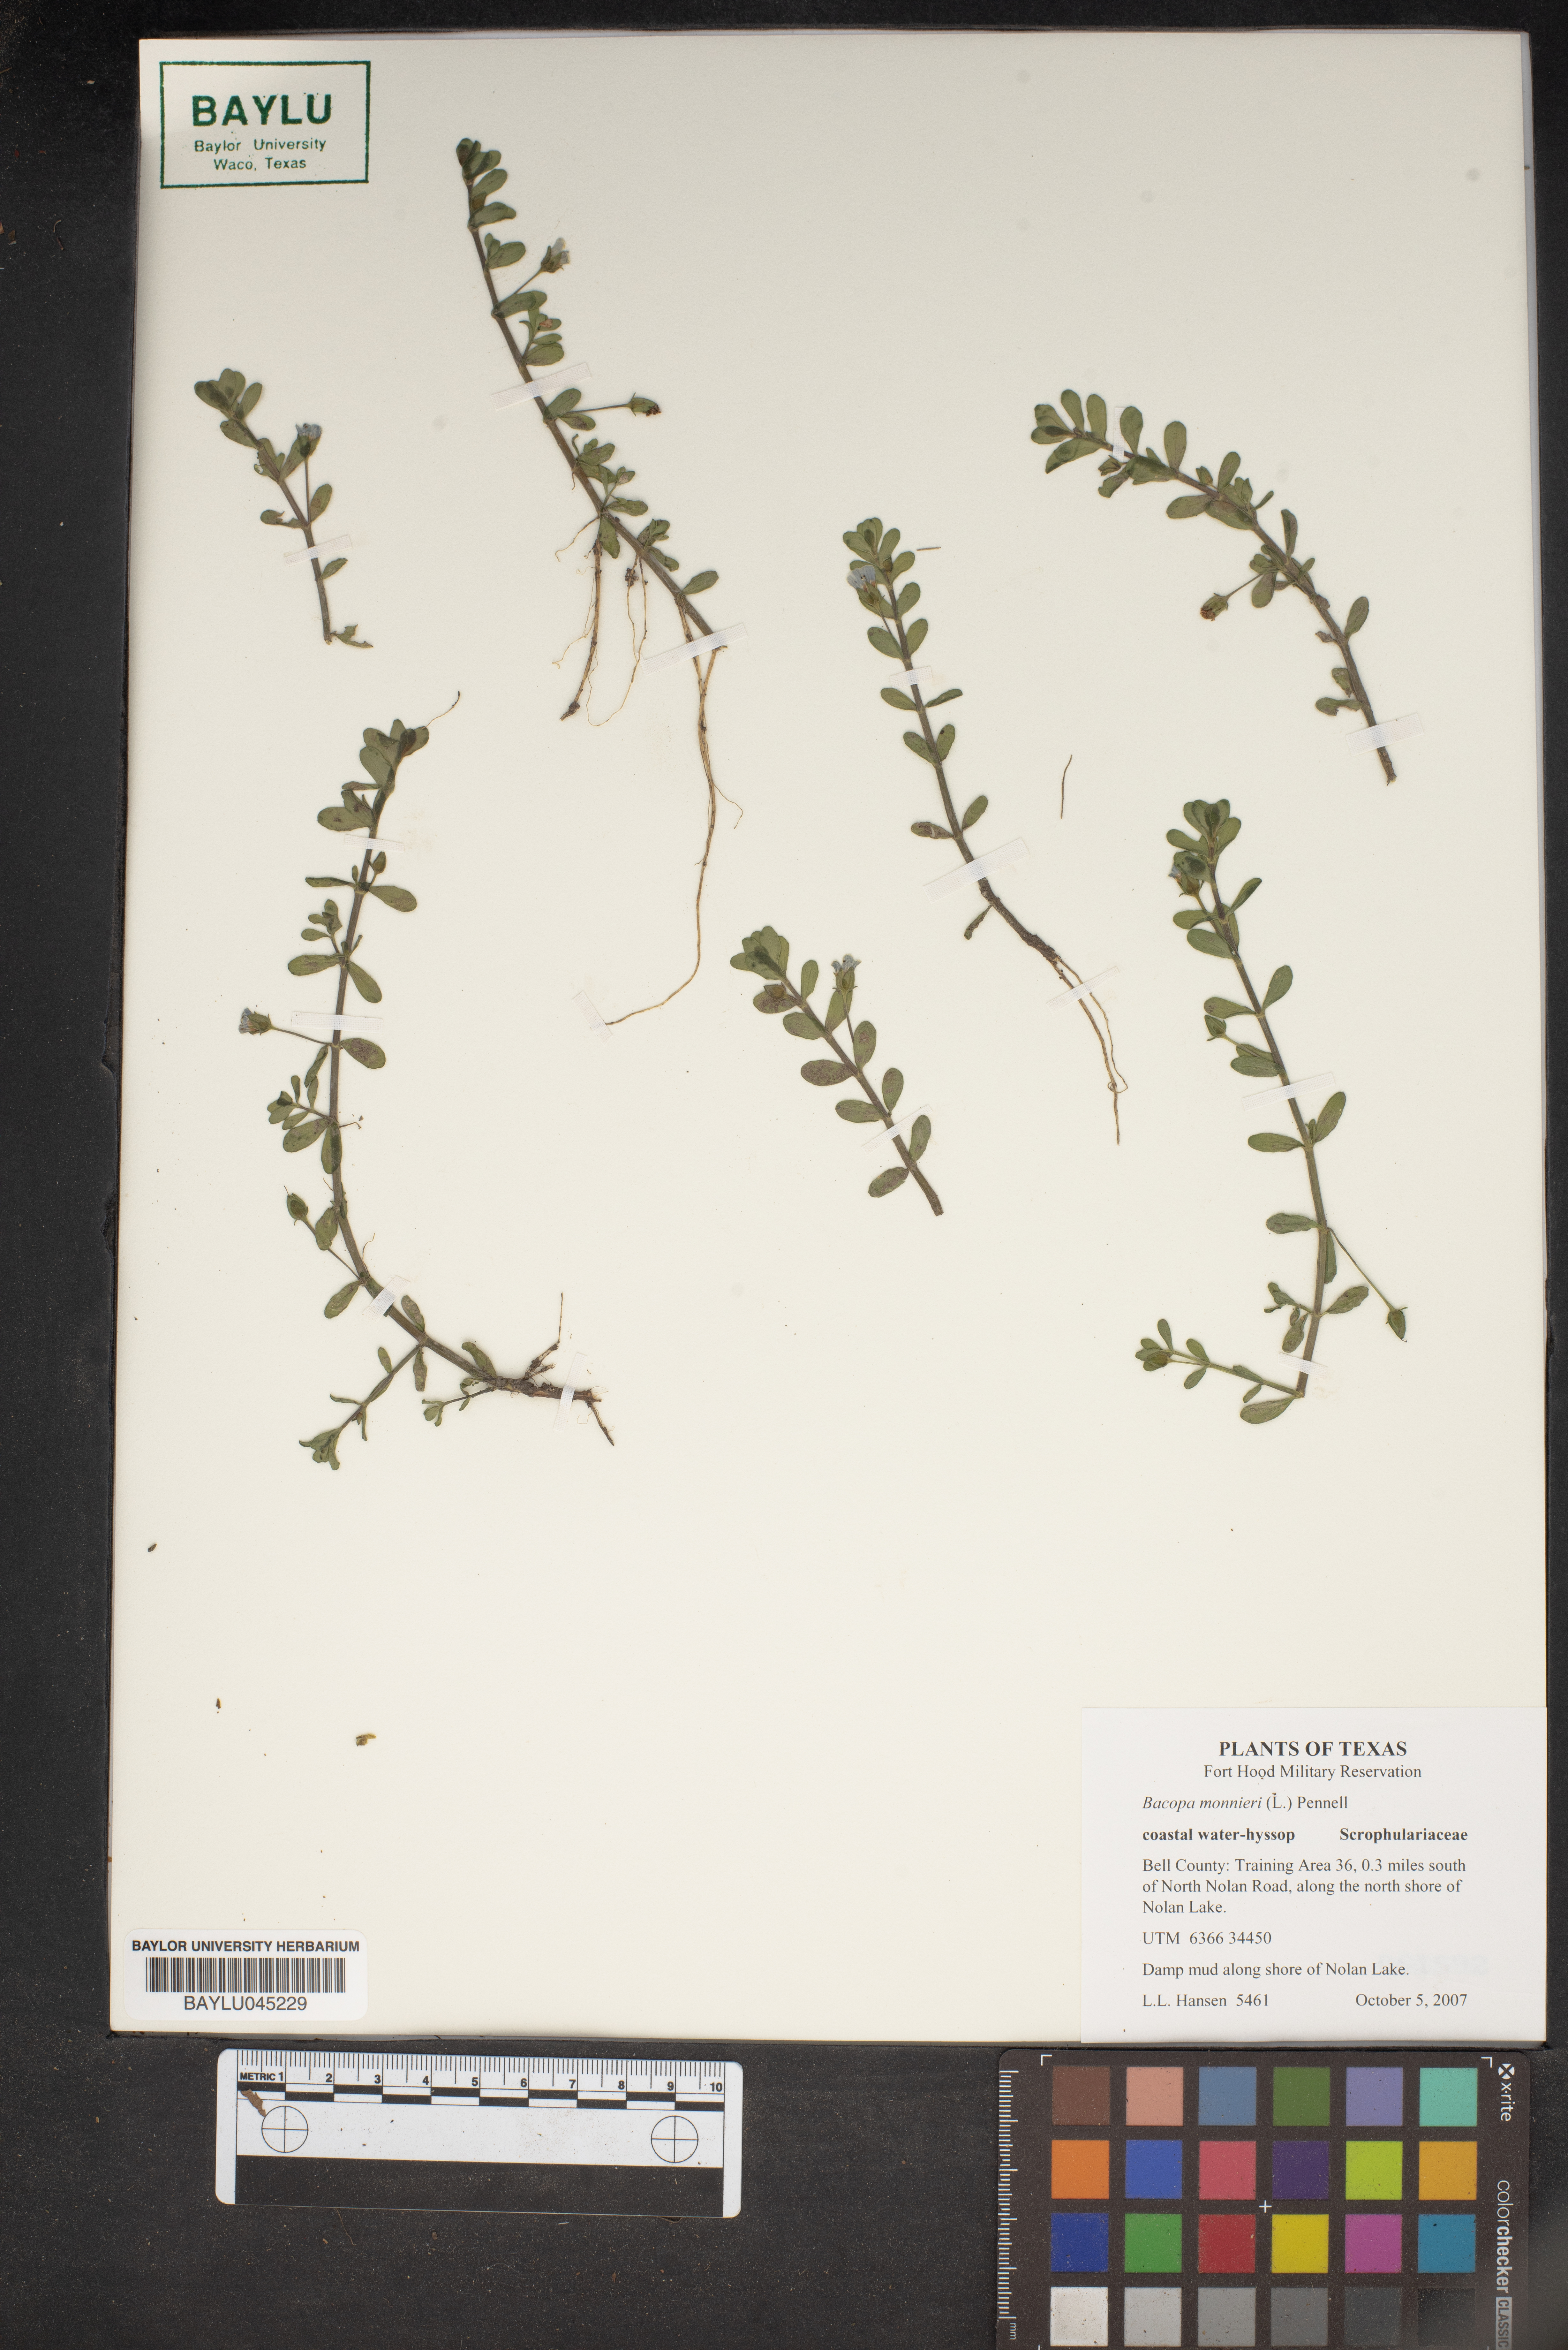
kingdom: Plantae
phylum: Tracheophyta
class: Magnoliopsida
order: Lamiales
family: Plantaginaceae
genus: Bacopa
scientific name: Bacopa monnieri
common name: Indian-pennywort
